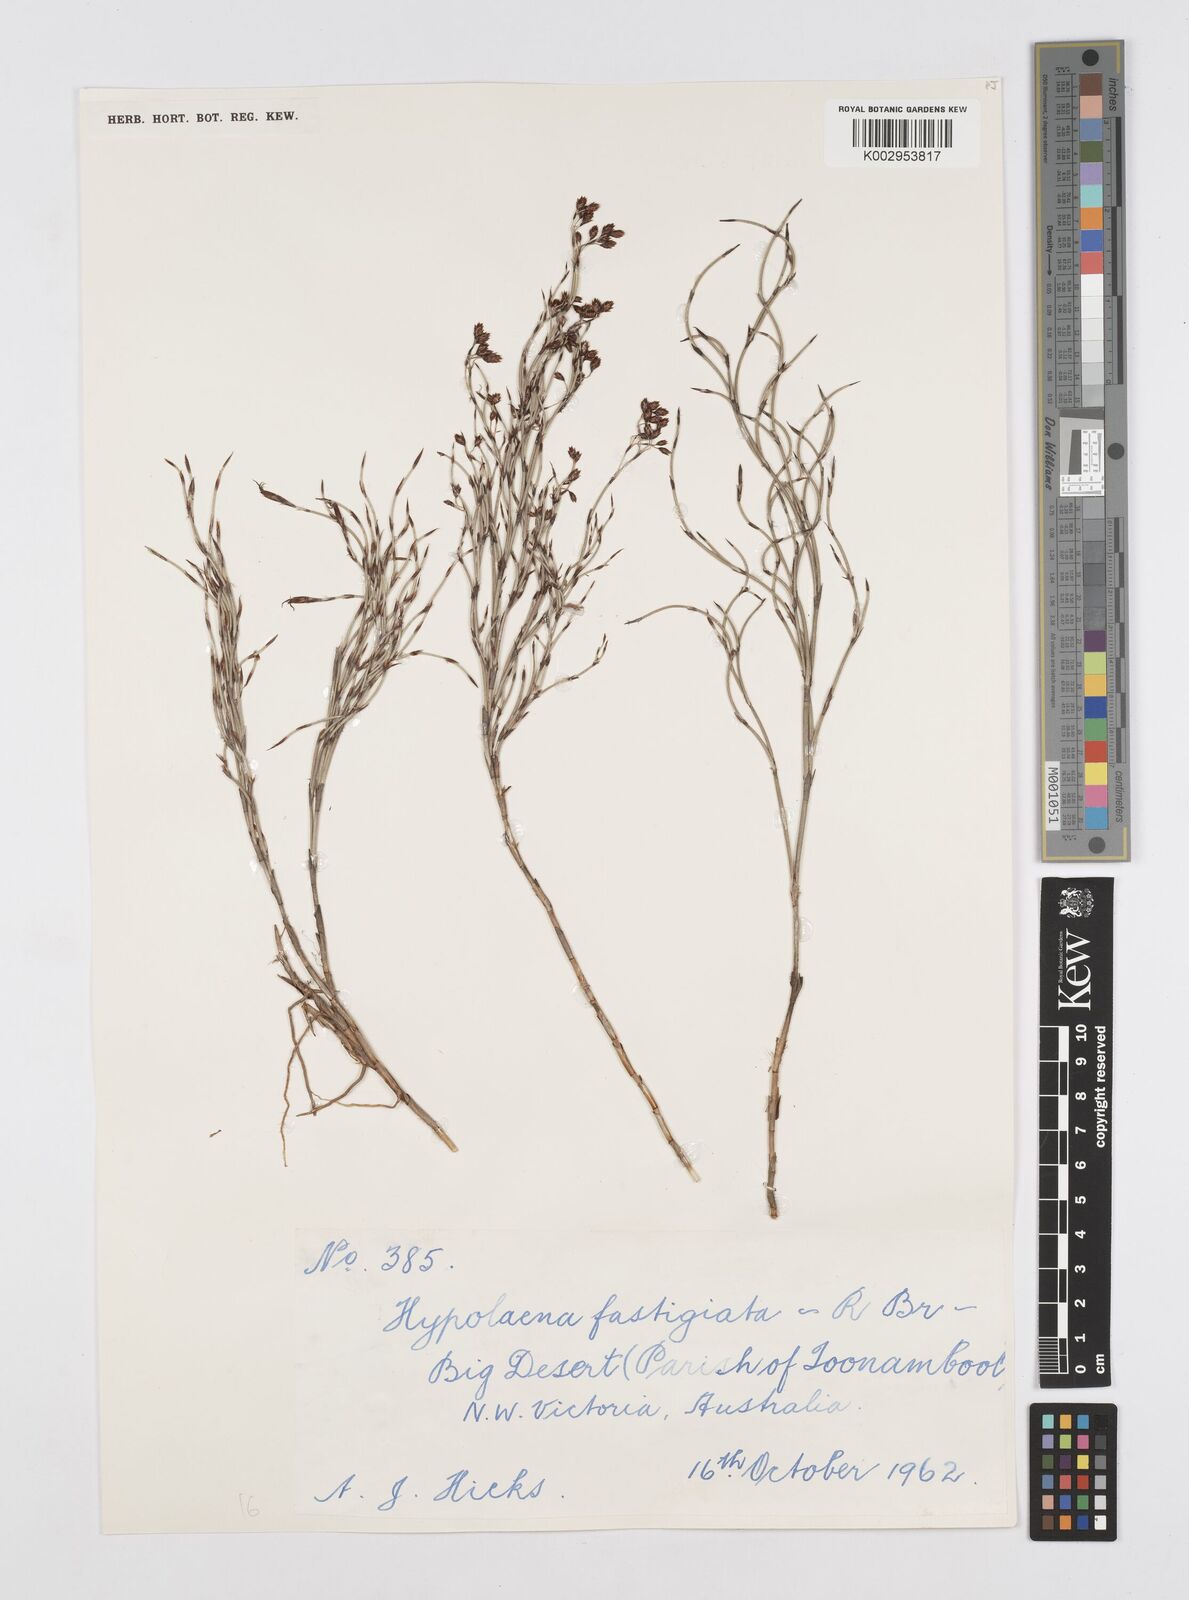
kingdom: Plantae
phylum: Tracheophyta
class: Liliopsida
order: Poales
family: Restionaceae
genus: Hypolaena
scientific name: Hypolaena fastigiata
